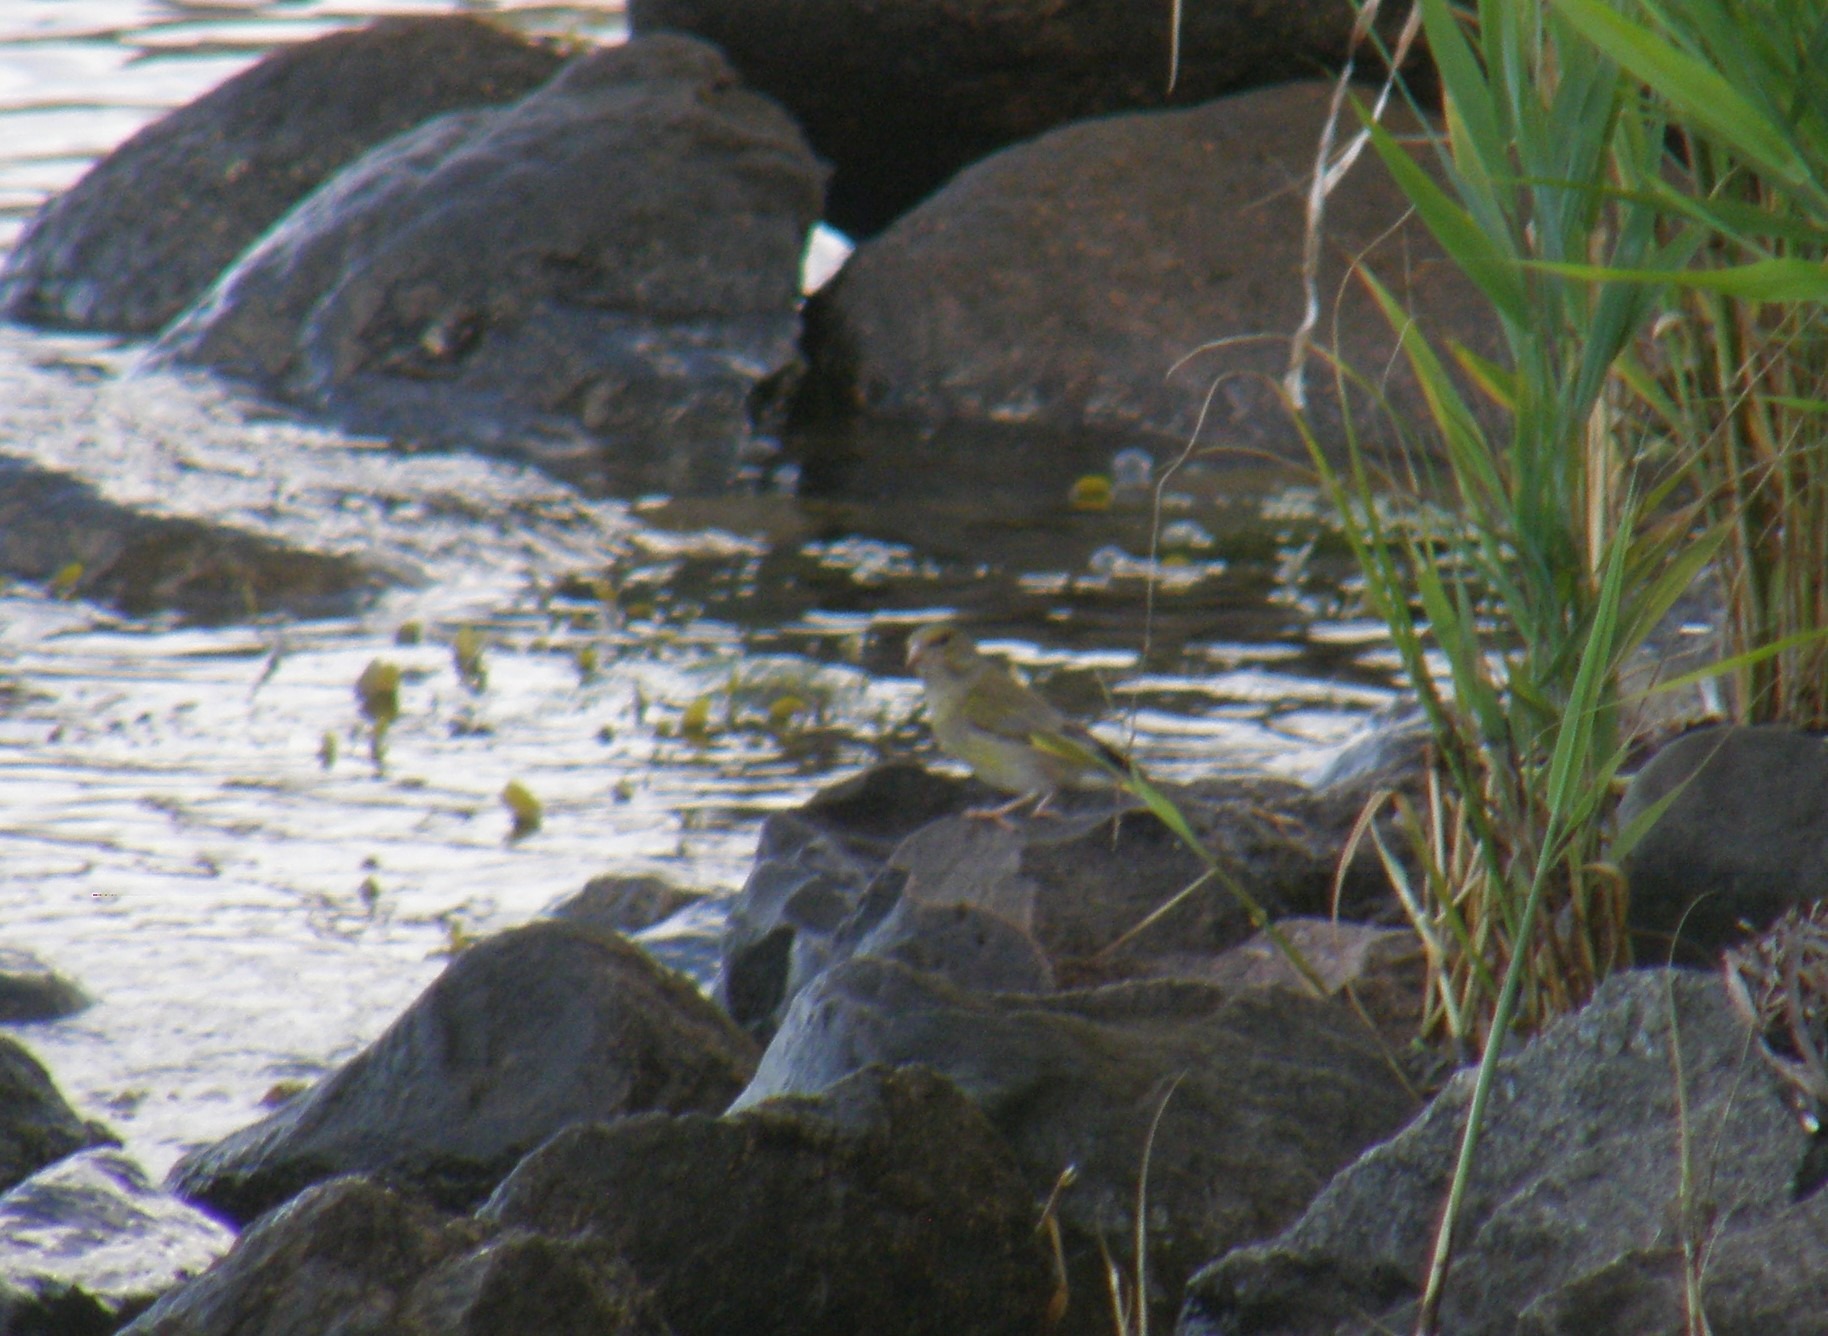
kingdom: Plantae
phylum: Tracheophyta
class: Liliopsida
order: Poales
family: Poaceae
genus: Chloris
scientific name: Chloris chloris
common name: Grønirisk
